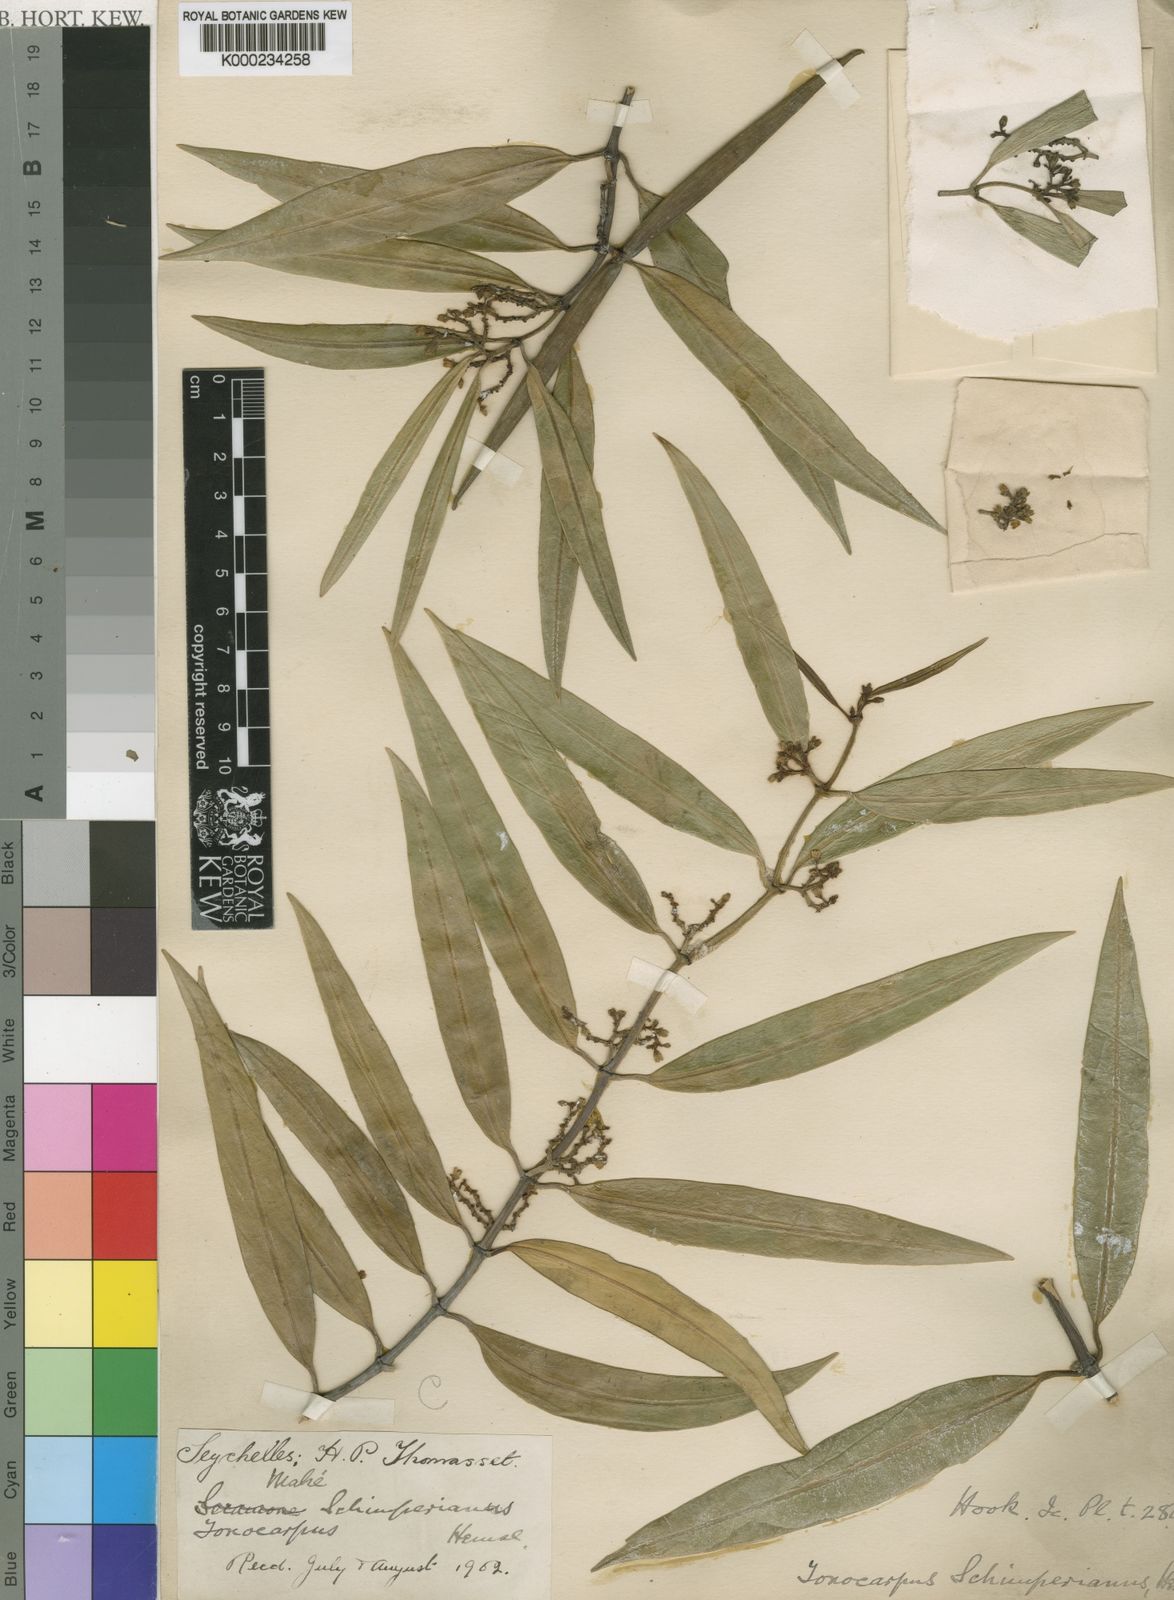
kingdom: Plantae
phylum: Tracheophyta
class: Magnoliopsida
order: Gentianales
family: Apocynaceae
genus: Secamone
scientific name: Secamone schimperiana
